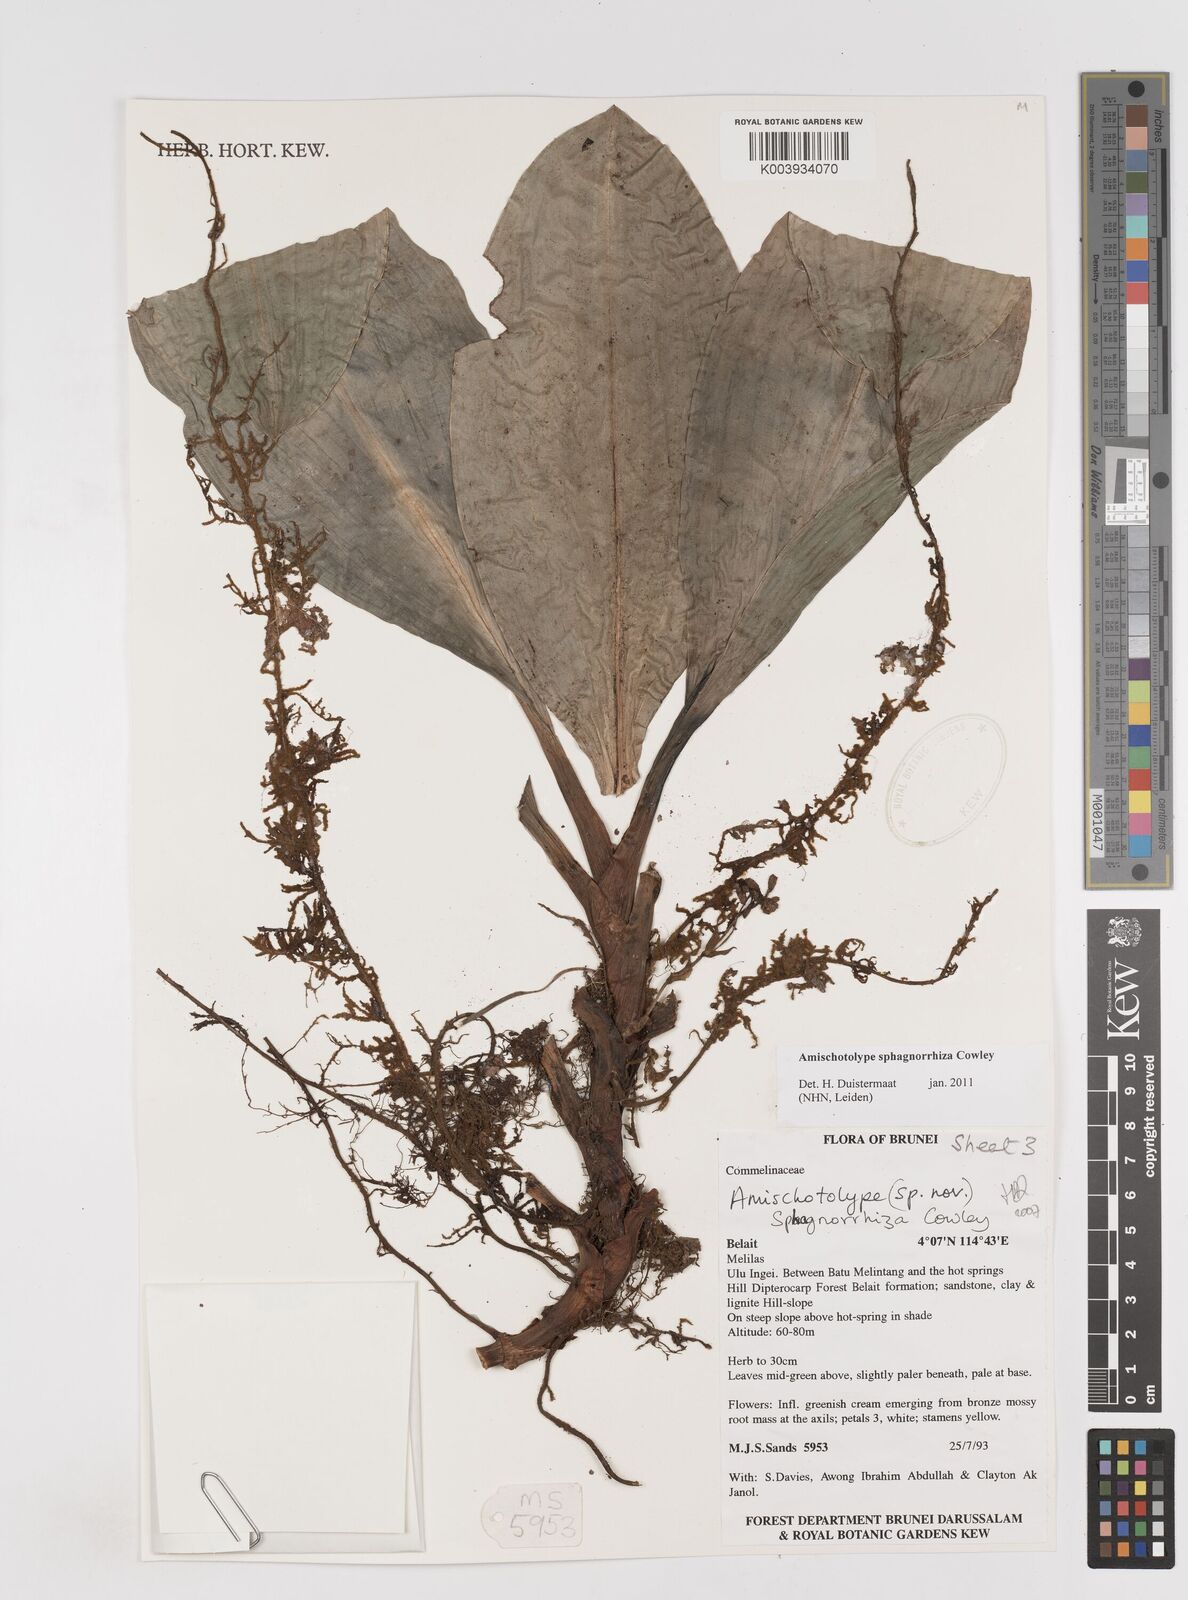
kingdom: Plantae
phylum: Tracheophyta
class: Liliopsida
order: Commelinales
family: Commelinaceae
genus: Amischotolype
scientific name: Amischotolype sphagnorrhiza
